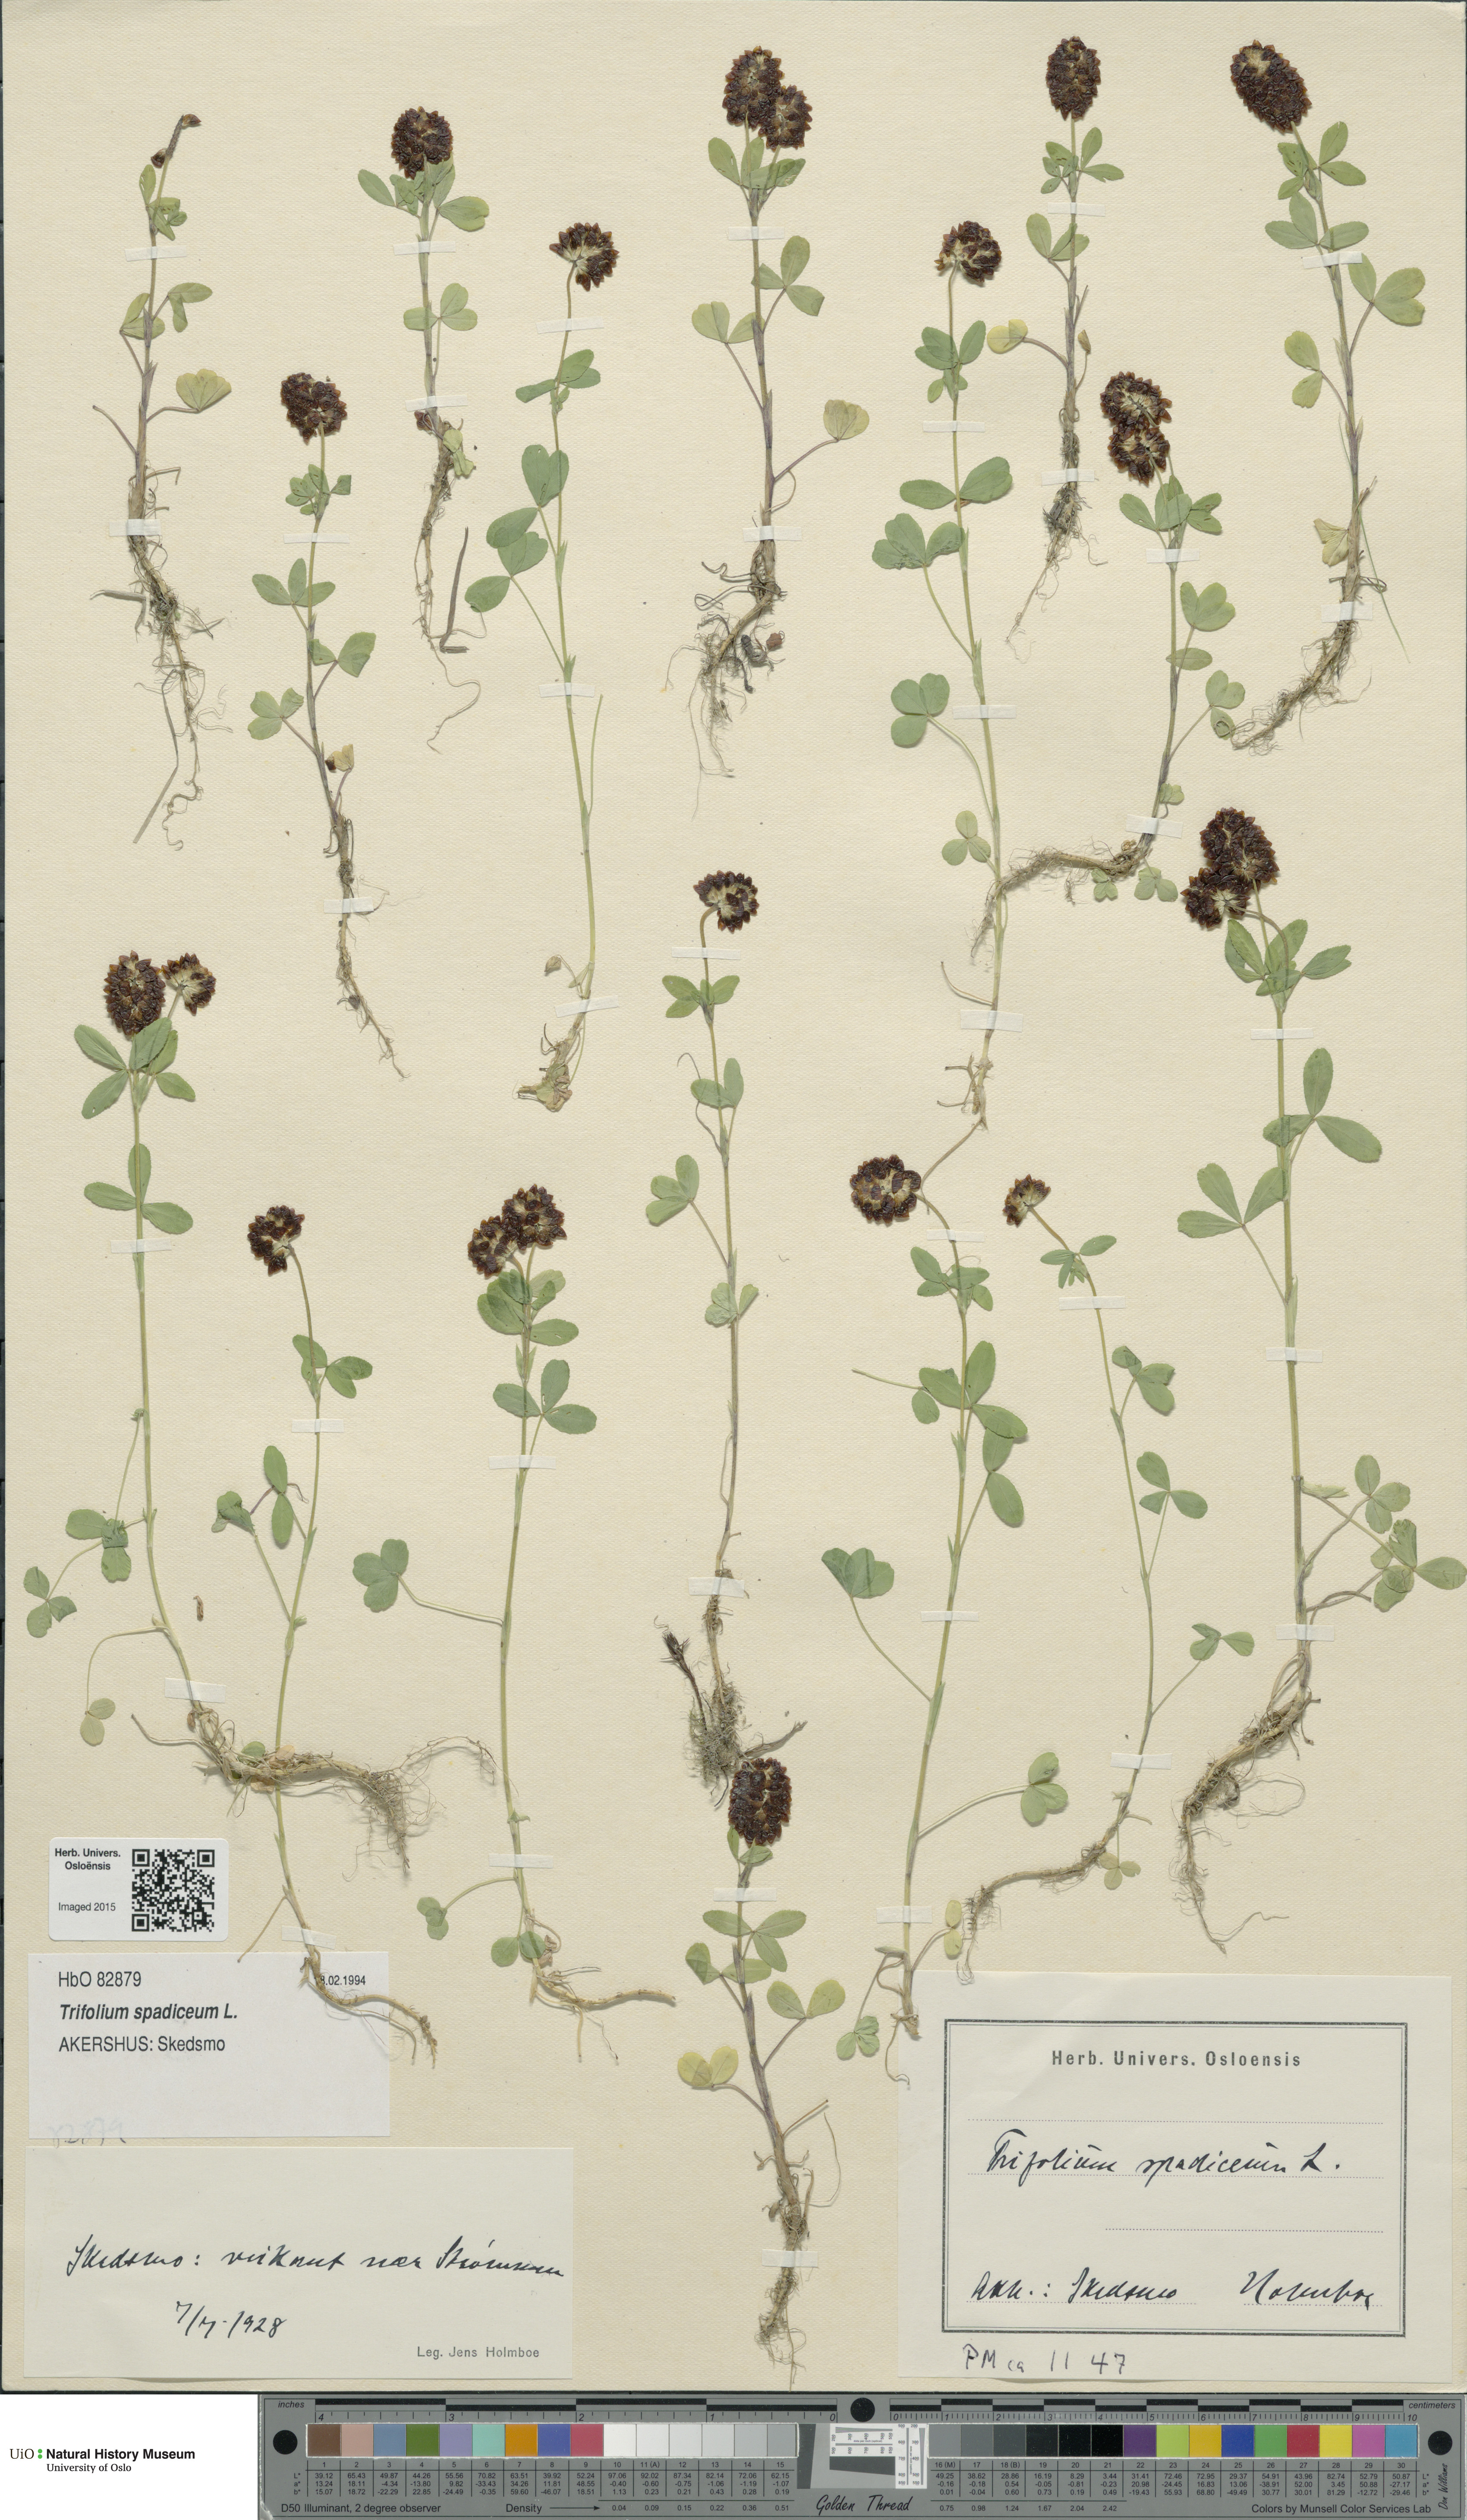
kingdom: Plantae
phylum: Tracheophyta
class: Magnoliopsida
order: Fabales
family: Fabaceae
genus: Trifolium
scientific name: Trifolium spadiceum
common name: Brown moor clover
